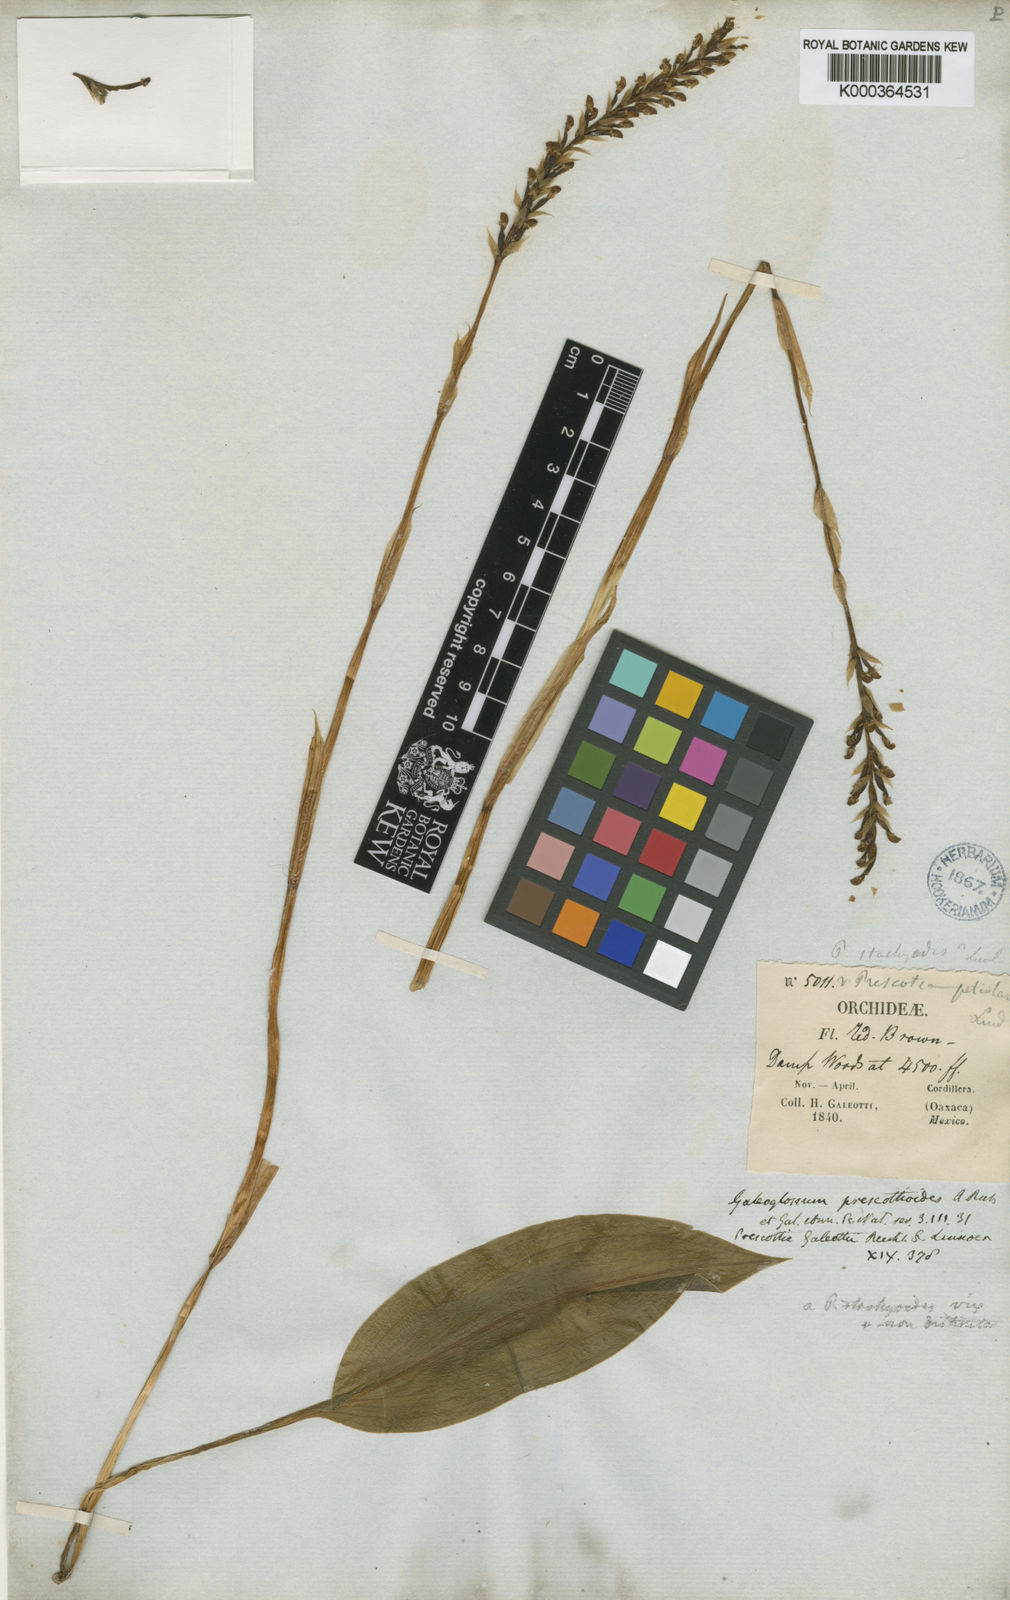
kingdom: Plantae
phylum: Tracheophyta
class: Liliopsida
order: Asparagales
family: Orchidaceae
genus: Prescottia
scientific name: Prescottia stachyodes
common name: Mountain prescott orchid
